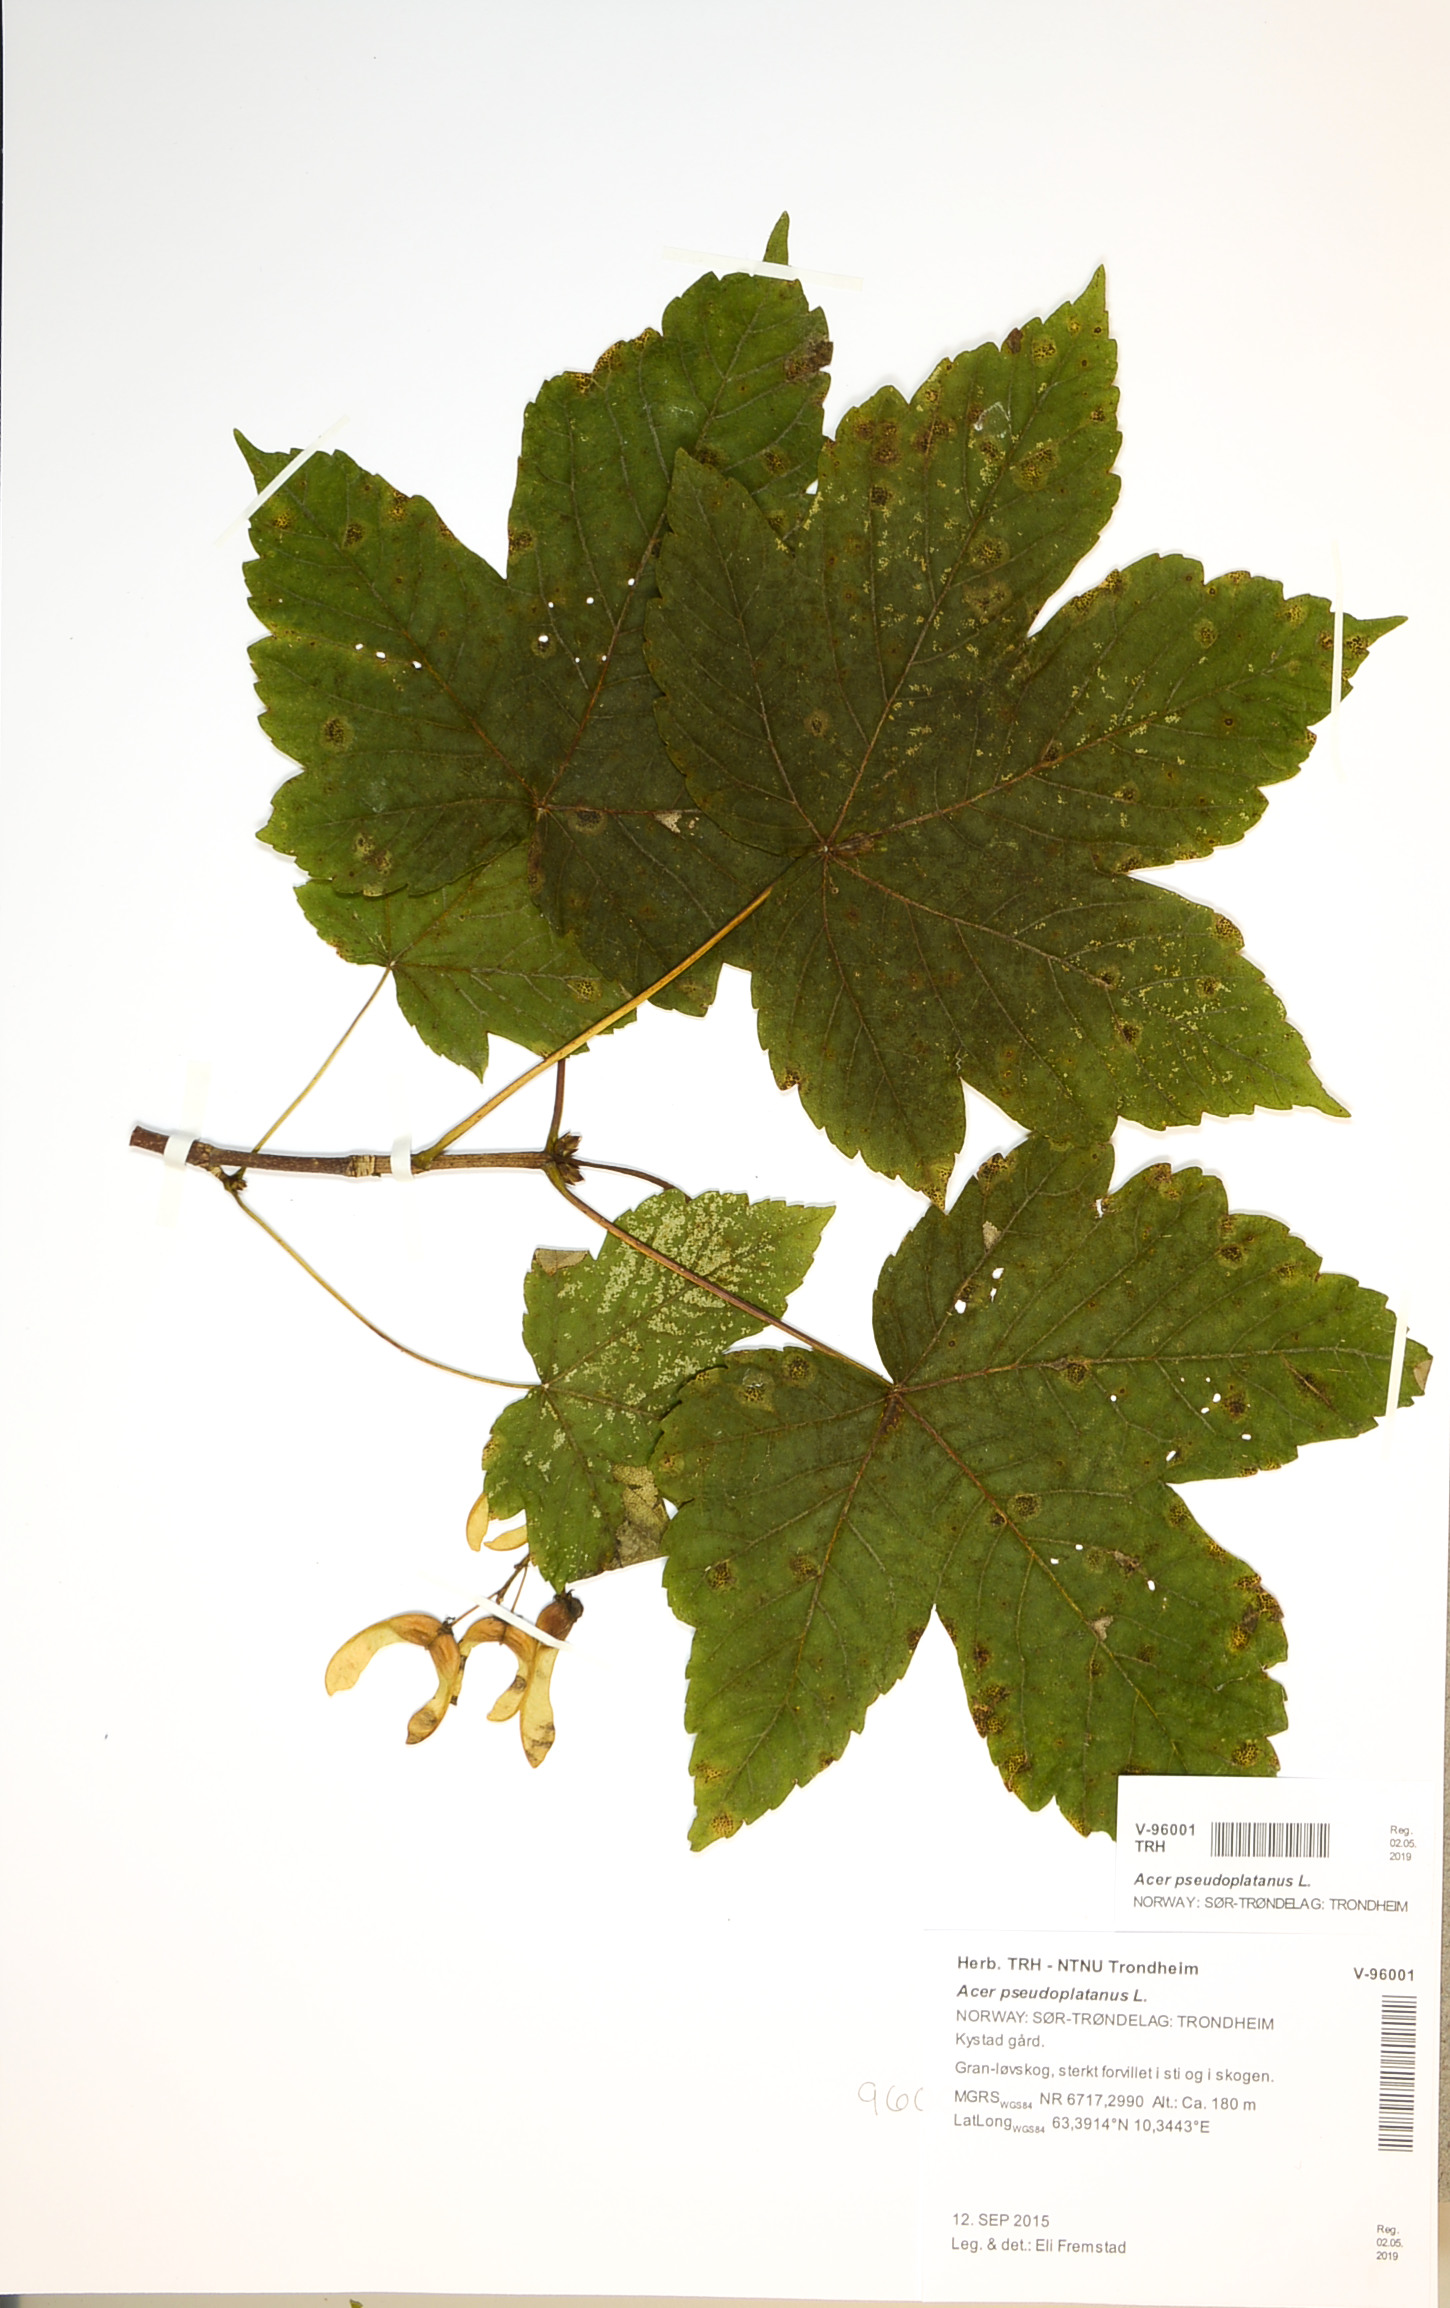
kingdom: Plantae
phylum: Tracheophyta
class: Magnoliopsida
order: Sapindales
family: Sapindaceae
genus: Acer
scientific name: Acer pseudoplatanus
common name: Sycamore
